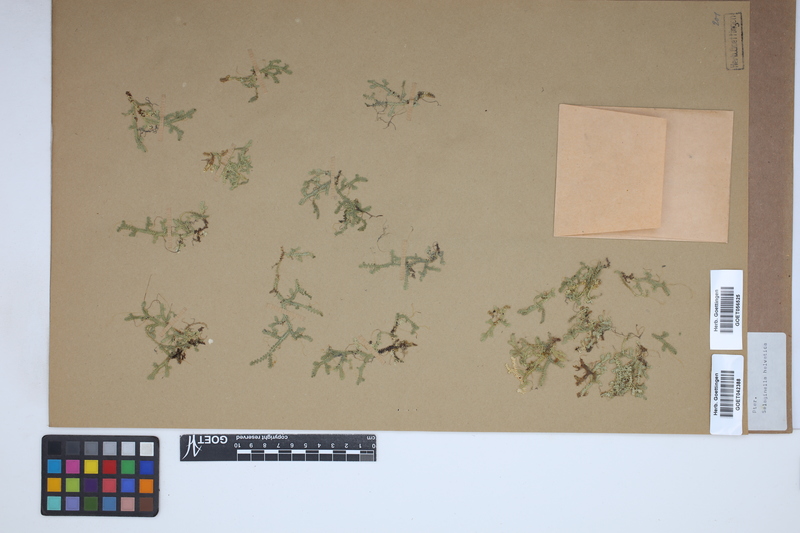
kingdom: Plantae
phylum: Tracheophyta
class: Lycopodiopsida
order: Selaginellales
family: Selaginellaceae
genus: Selaginella
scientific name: Selaginella helvetica
